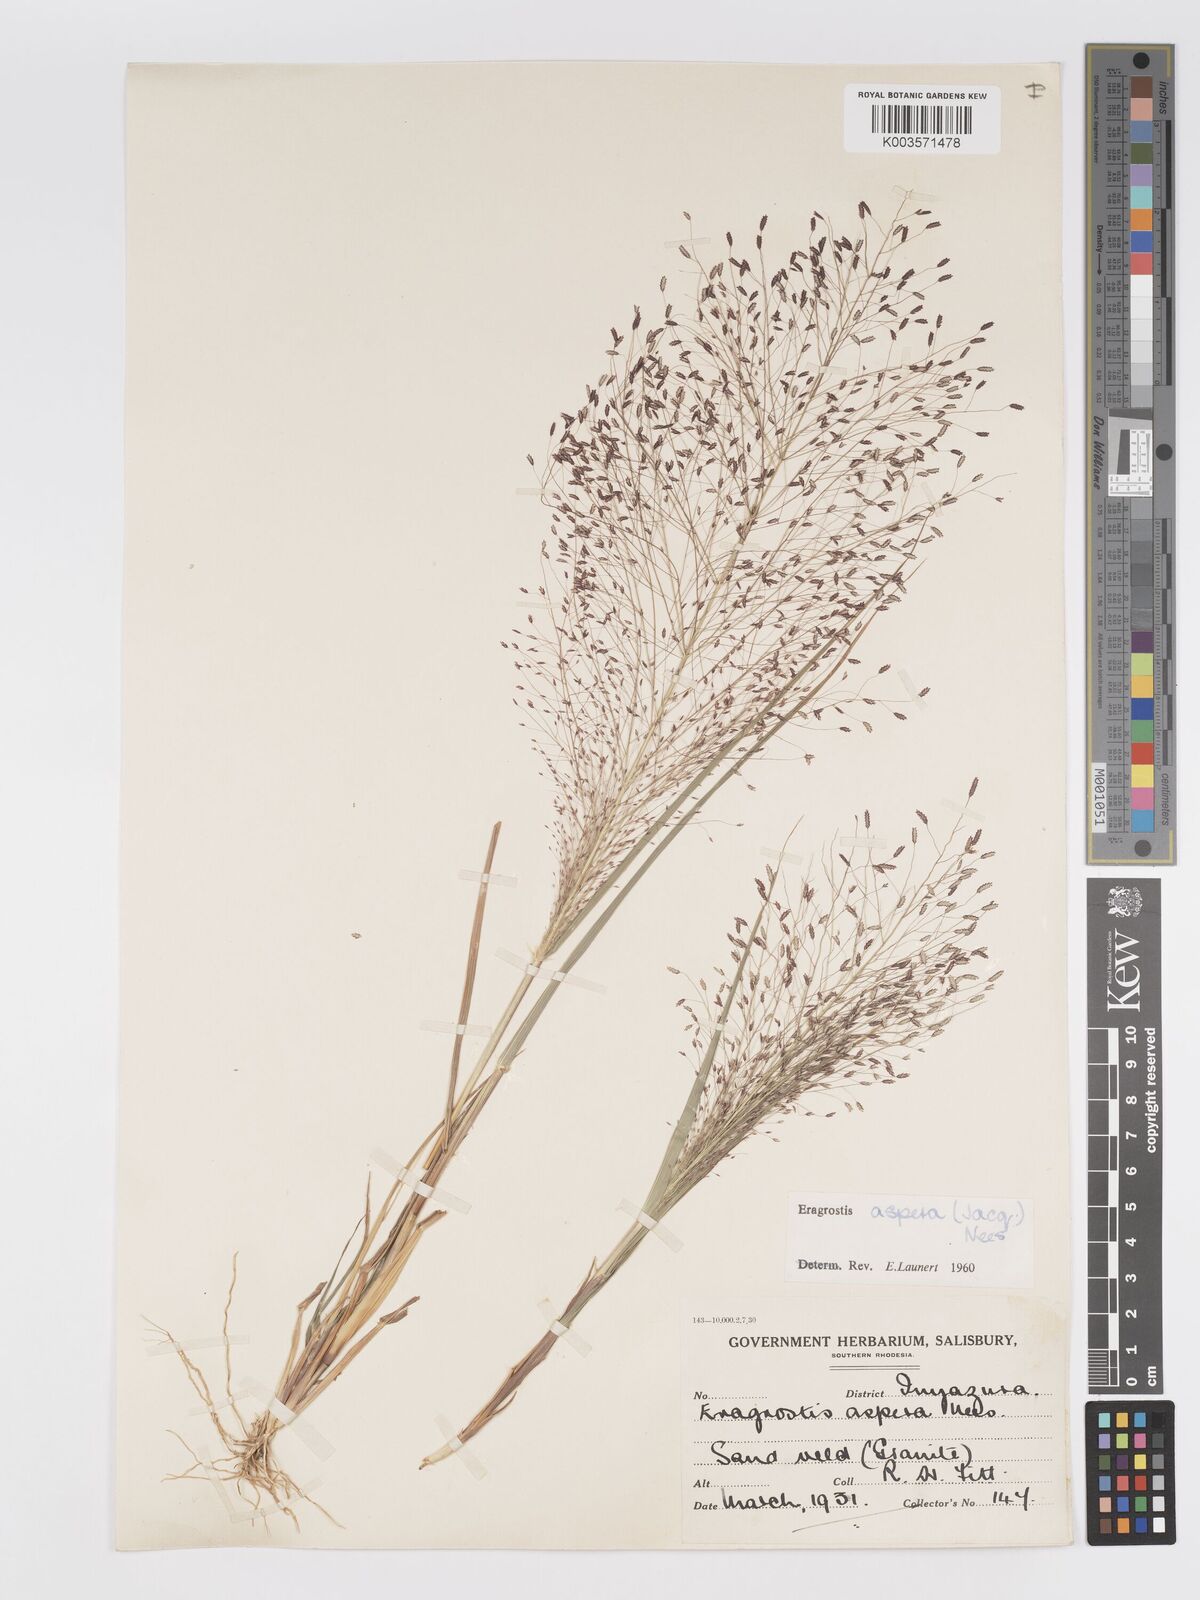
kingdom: Plantae
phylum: Tracheophyta
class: Liliopsida
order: Poales
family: Poaceae
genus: Eragrostis
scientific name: Eragrostis aspera
